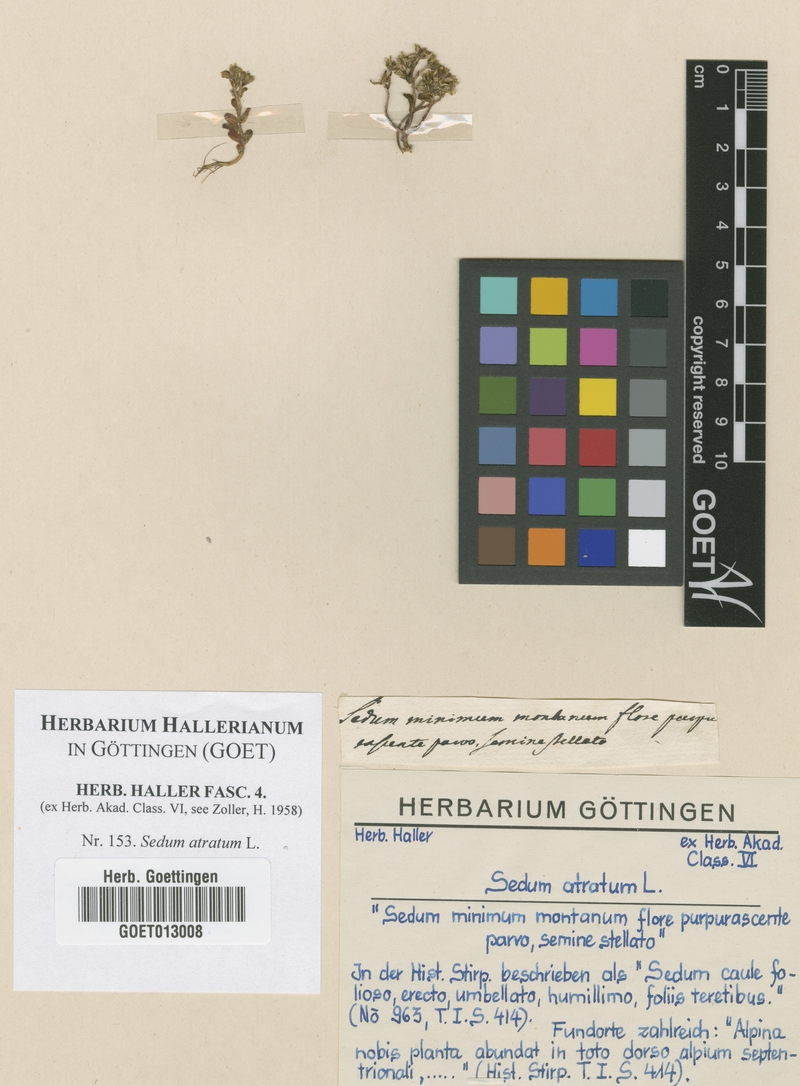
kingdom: Plantae
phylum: Tracheophyta
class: Magnoliopsida
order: Saxifragales
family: Crassulaceae
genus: Sedum
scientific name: Sedum atratum
